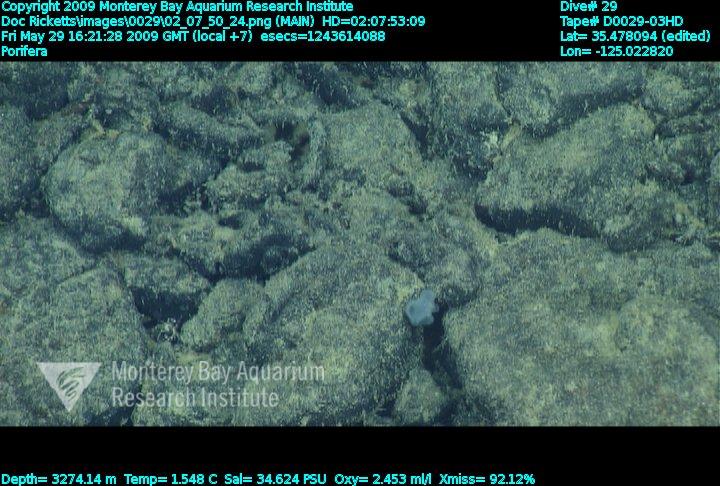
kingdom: Animalia
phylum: Porifera
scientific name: Porifera
